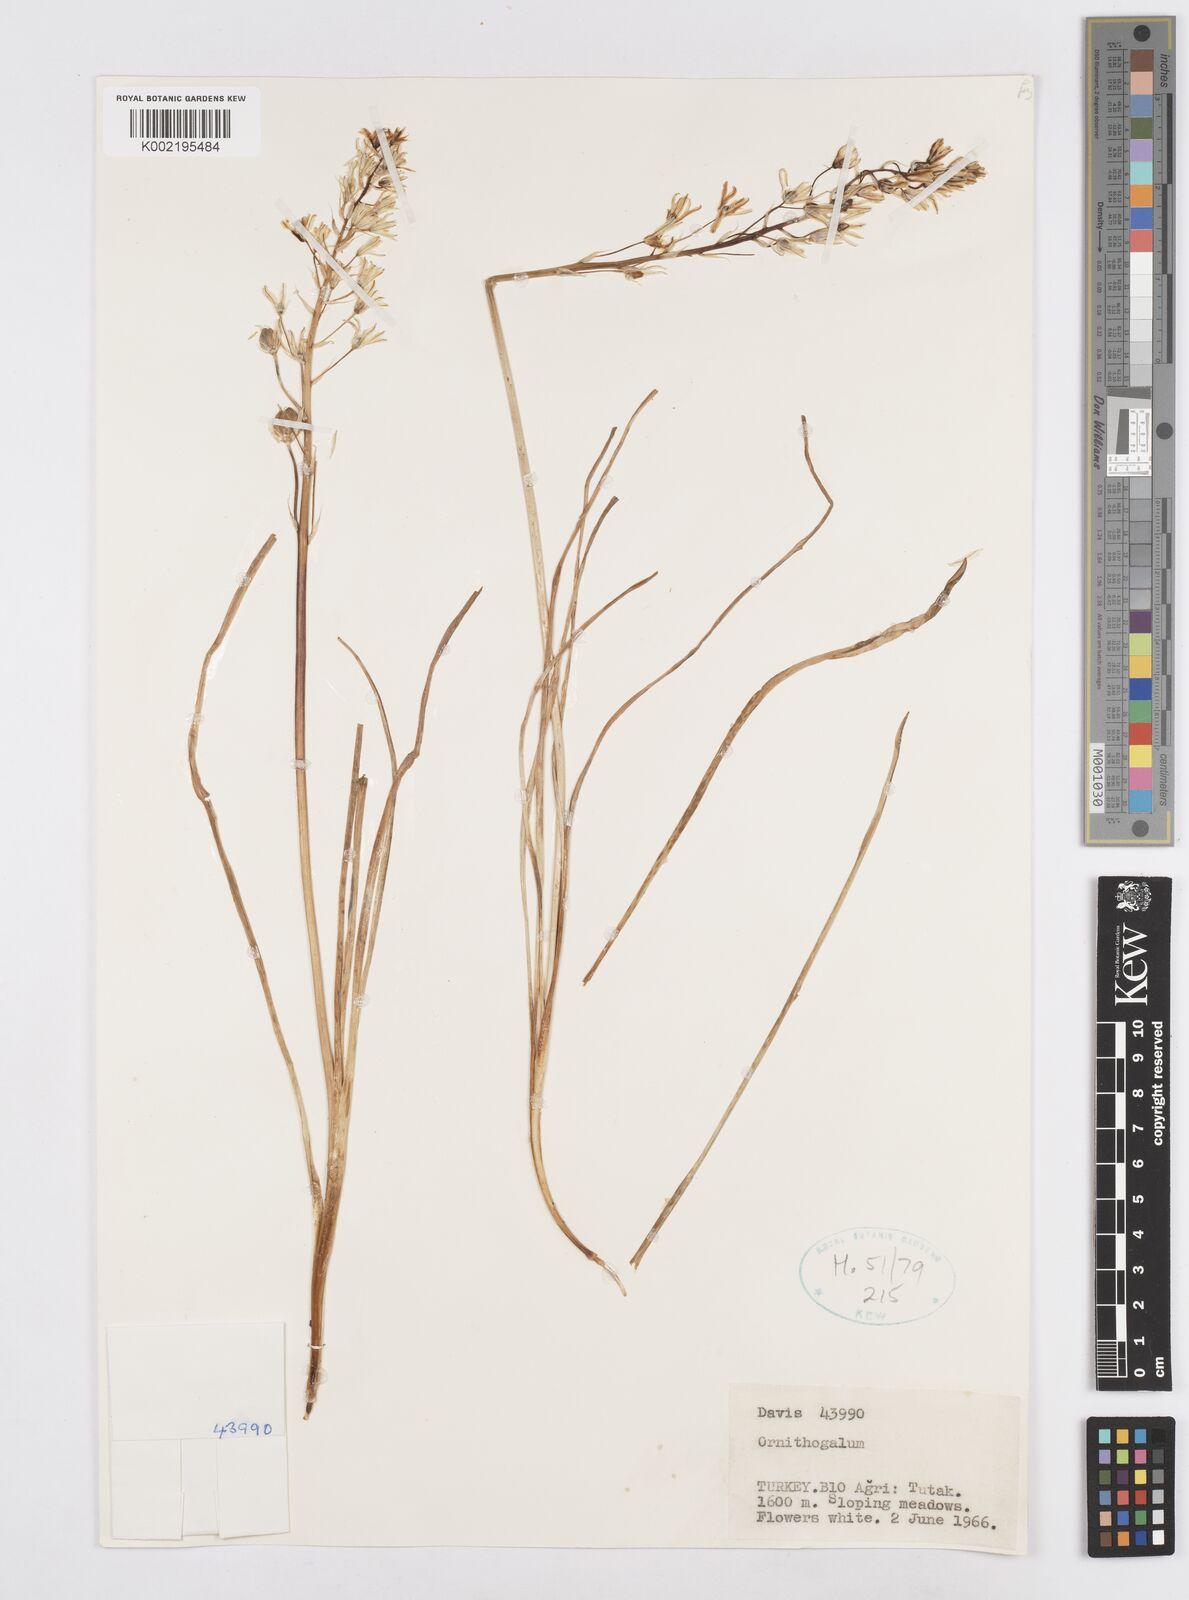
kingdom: Plantae
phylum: Tracheophyta
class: Liliopsida
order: Asparagales
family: Asparagaceae
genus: Ornithogalum
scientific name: Ornithogalum
